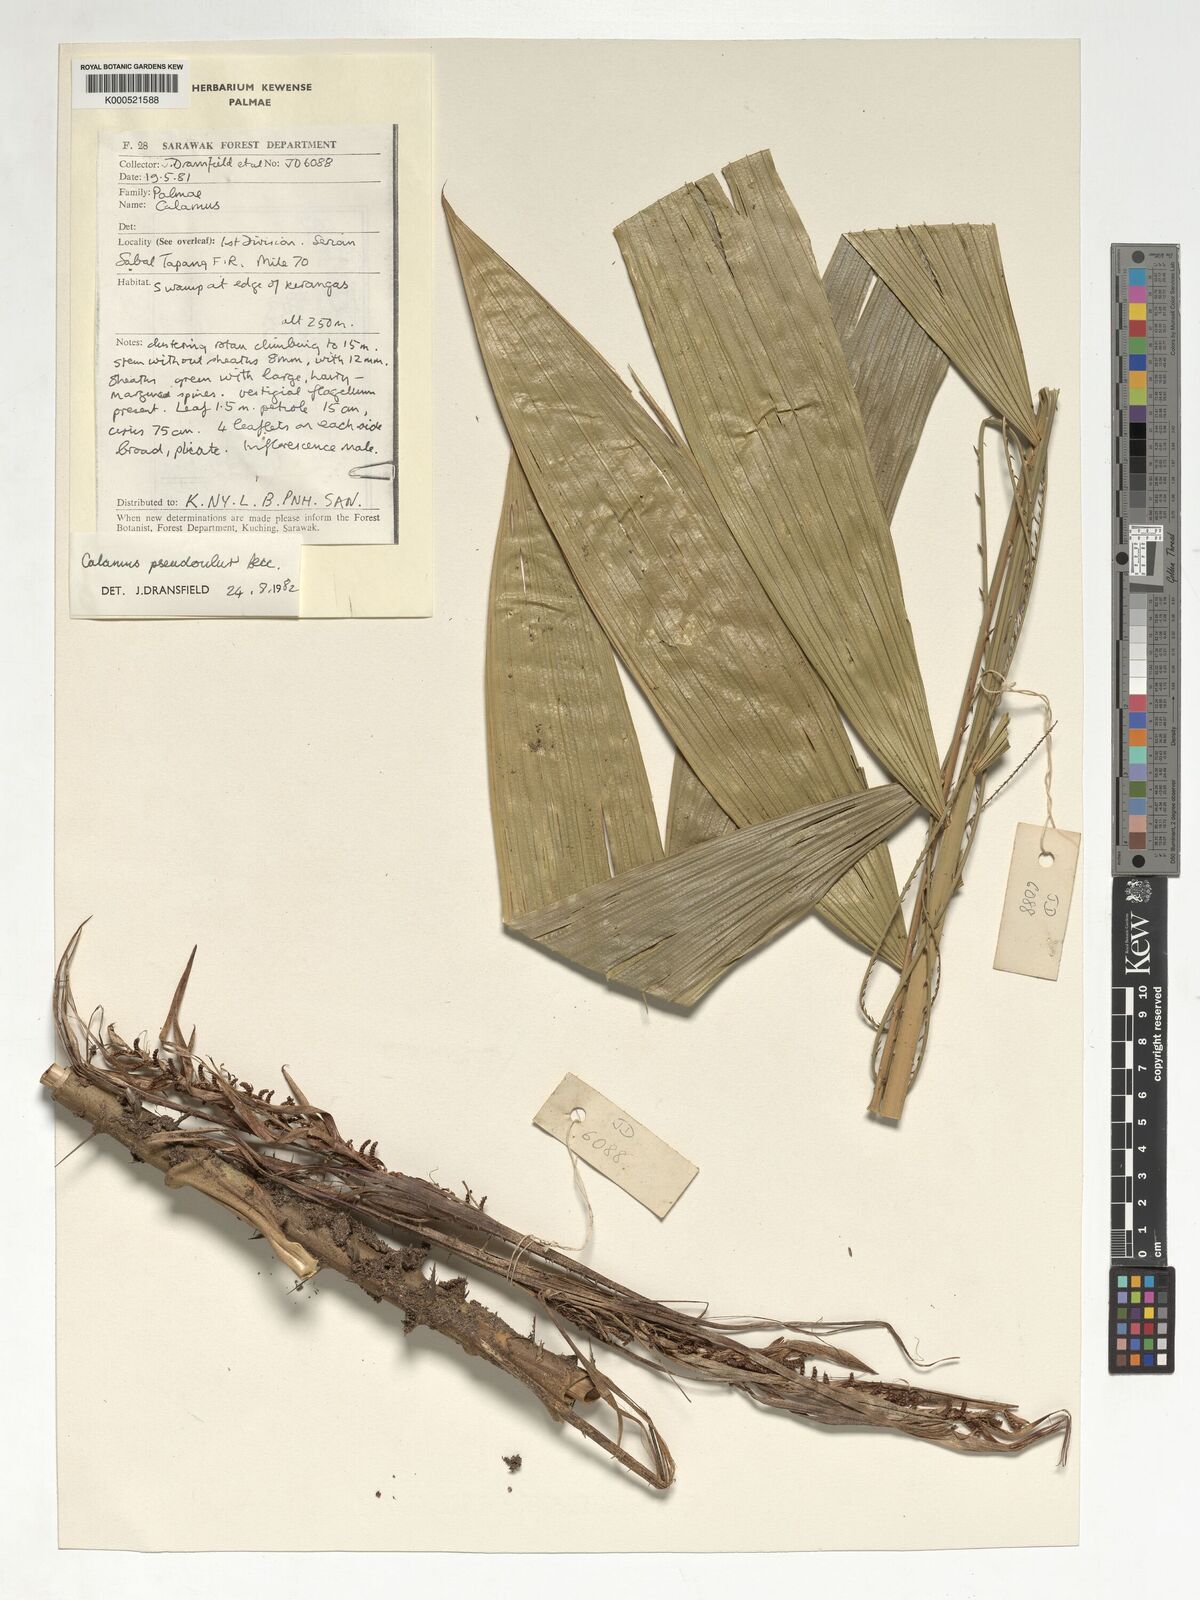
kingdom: Plantae
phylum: Tracheophyta
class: Liliopsida
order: Arecales
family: Arecaceae
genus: Calamus
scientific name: Calamus erioacanthus
